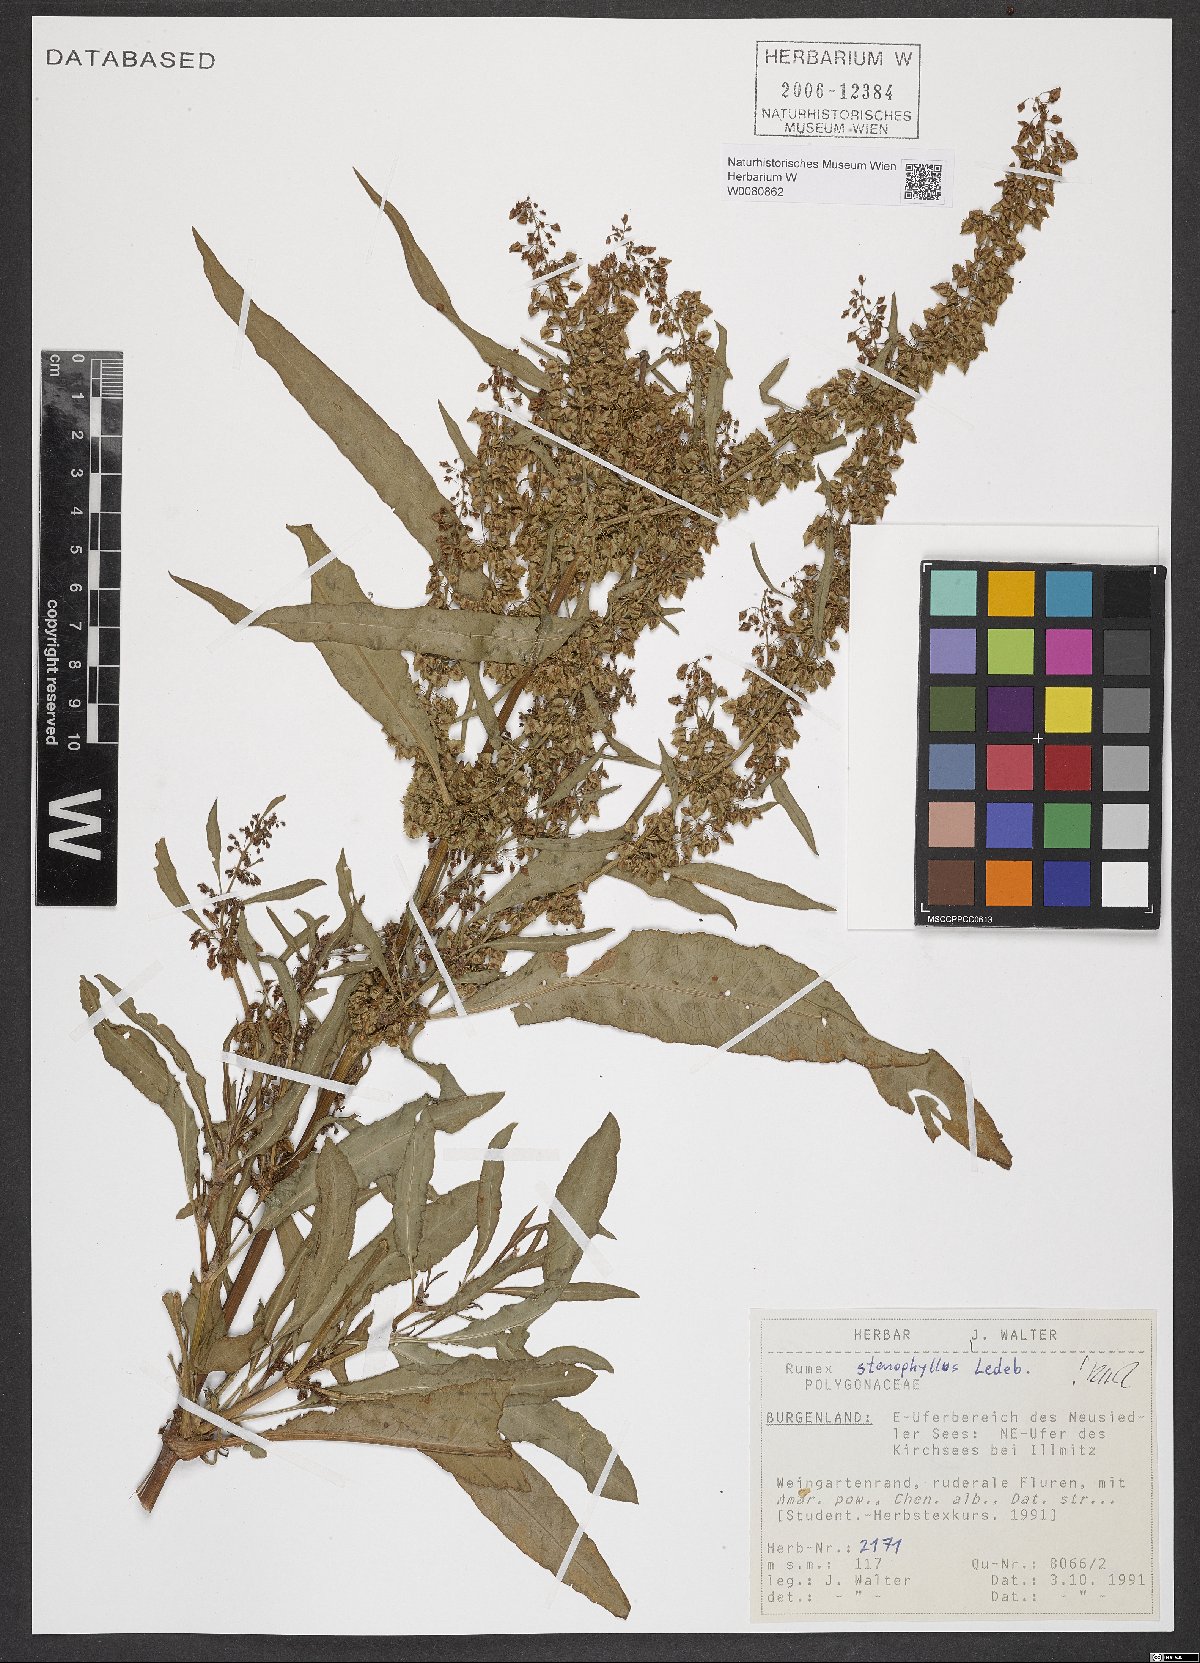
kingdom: Plantae
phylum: Tracheophyta
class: Magnoliopsida
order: Caryophyllales
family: Polygonaceae
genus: Rumex
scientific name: Rumex stenophyllus
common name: Narrowleaf dock
